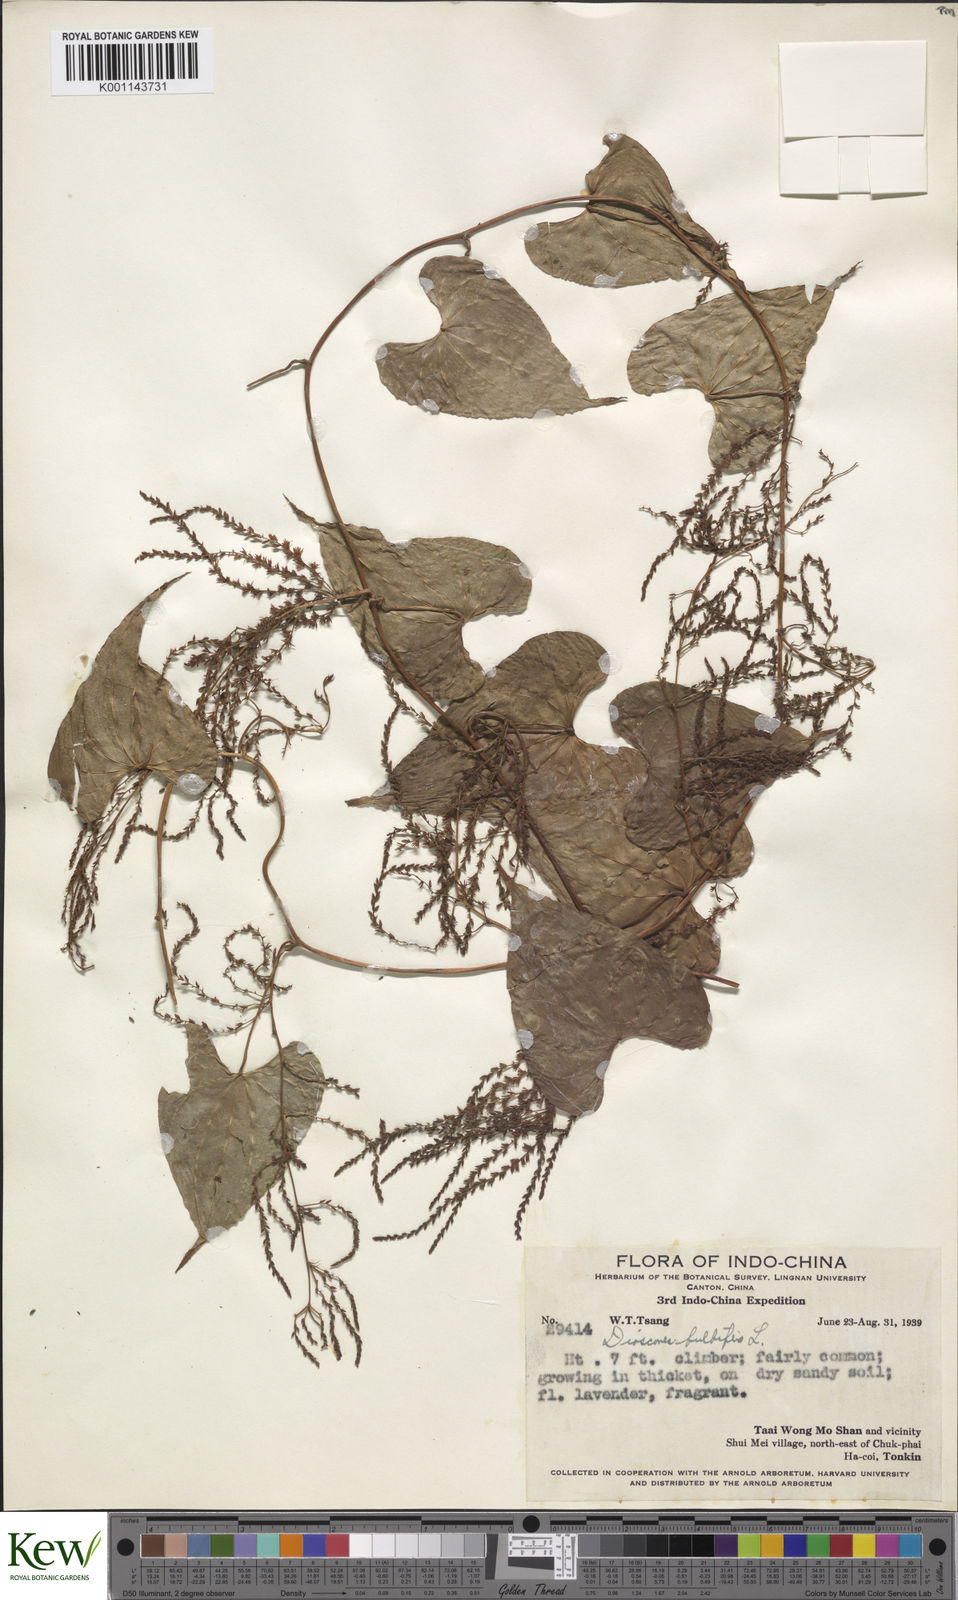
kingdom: Plantae
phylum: Tracheophyta
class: Liliopsida
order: Dioscoreales
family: Dioscoreaceae
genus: Dioscorea
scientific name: Dioscorea bulbifera
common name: Air yam
